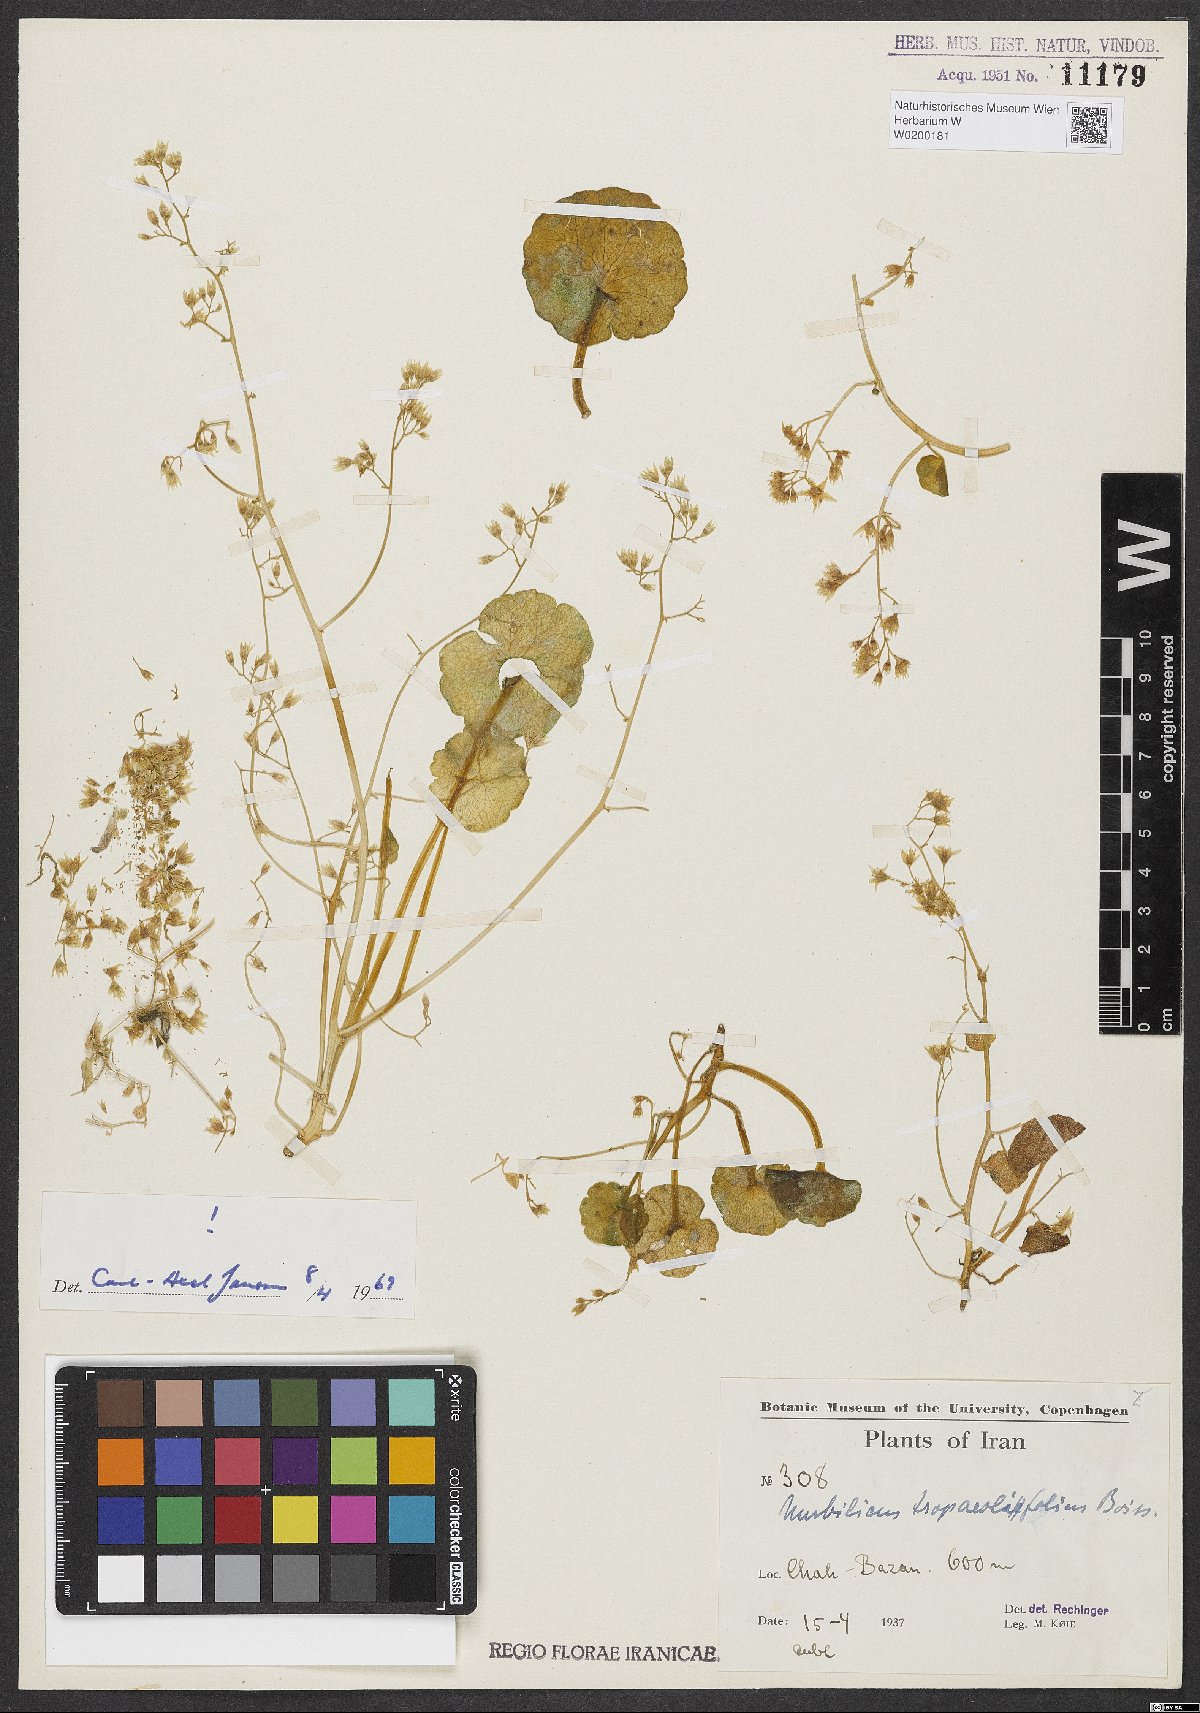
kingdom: Plantae
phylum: Tracheophyta
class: Magnoliopsida
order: Saxifragales
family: Crassulaceae
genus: Umbilicus
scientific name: Umbilicus tropaeolifolius
